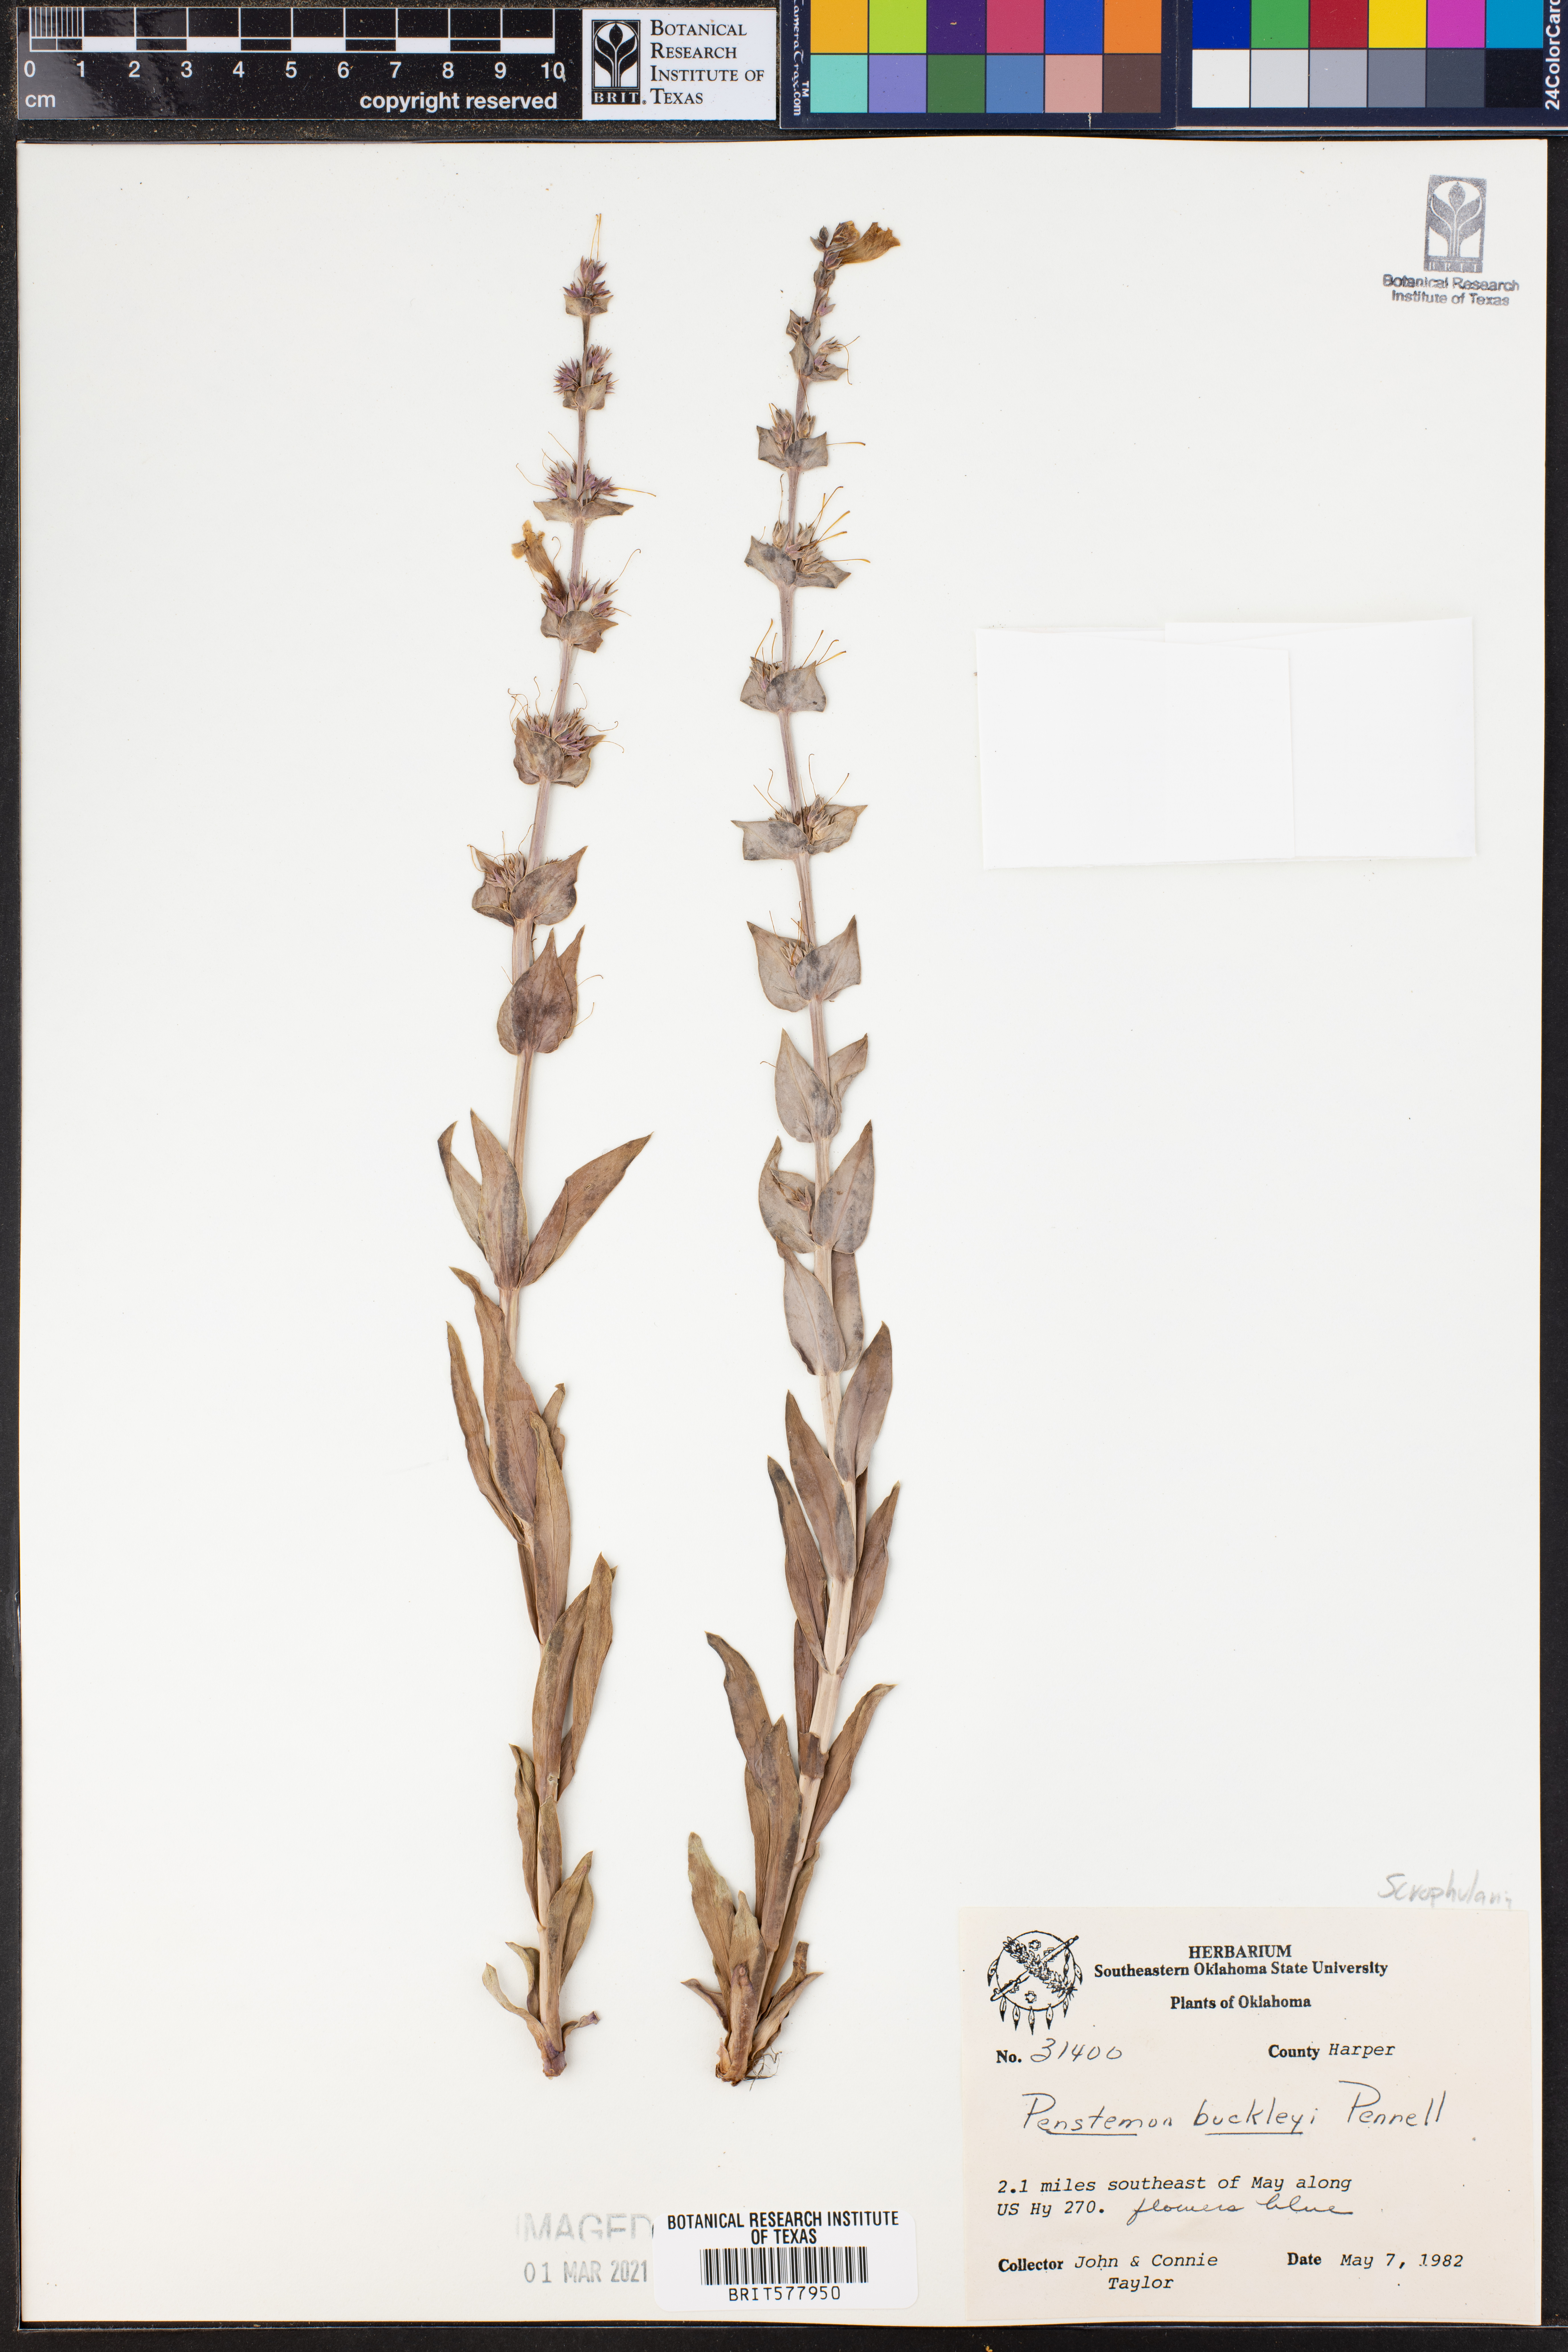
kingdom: Plantae
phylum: Tracheophyta
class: Magnoliopsida
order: Lamiales
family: Plantaginaceae
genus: Penstemon
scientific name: Penstemon buckleyi
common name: Buckley's penstemon
